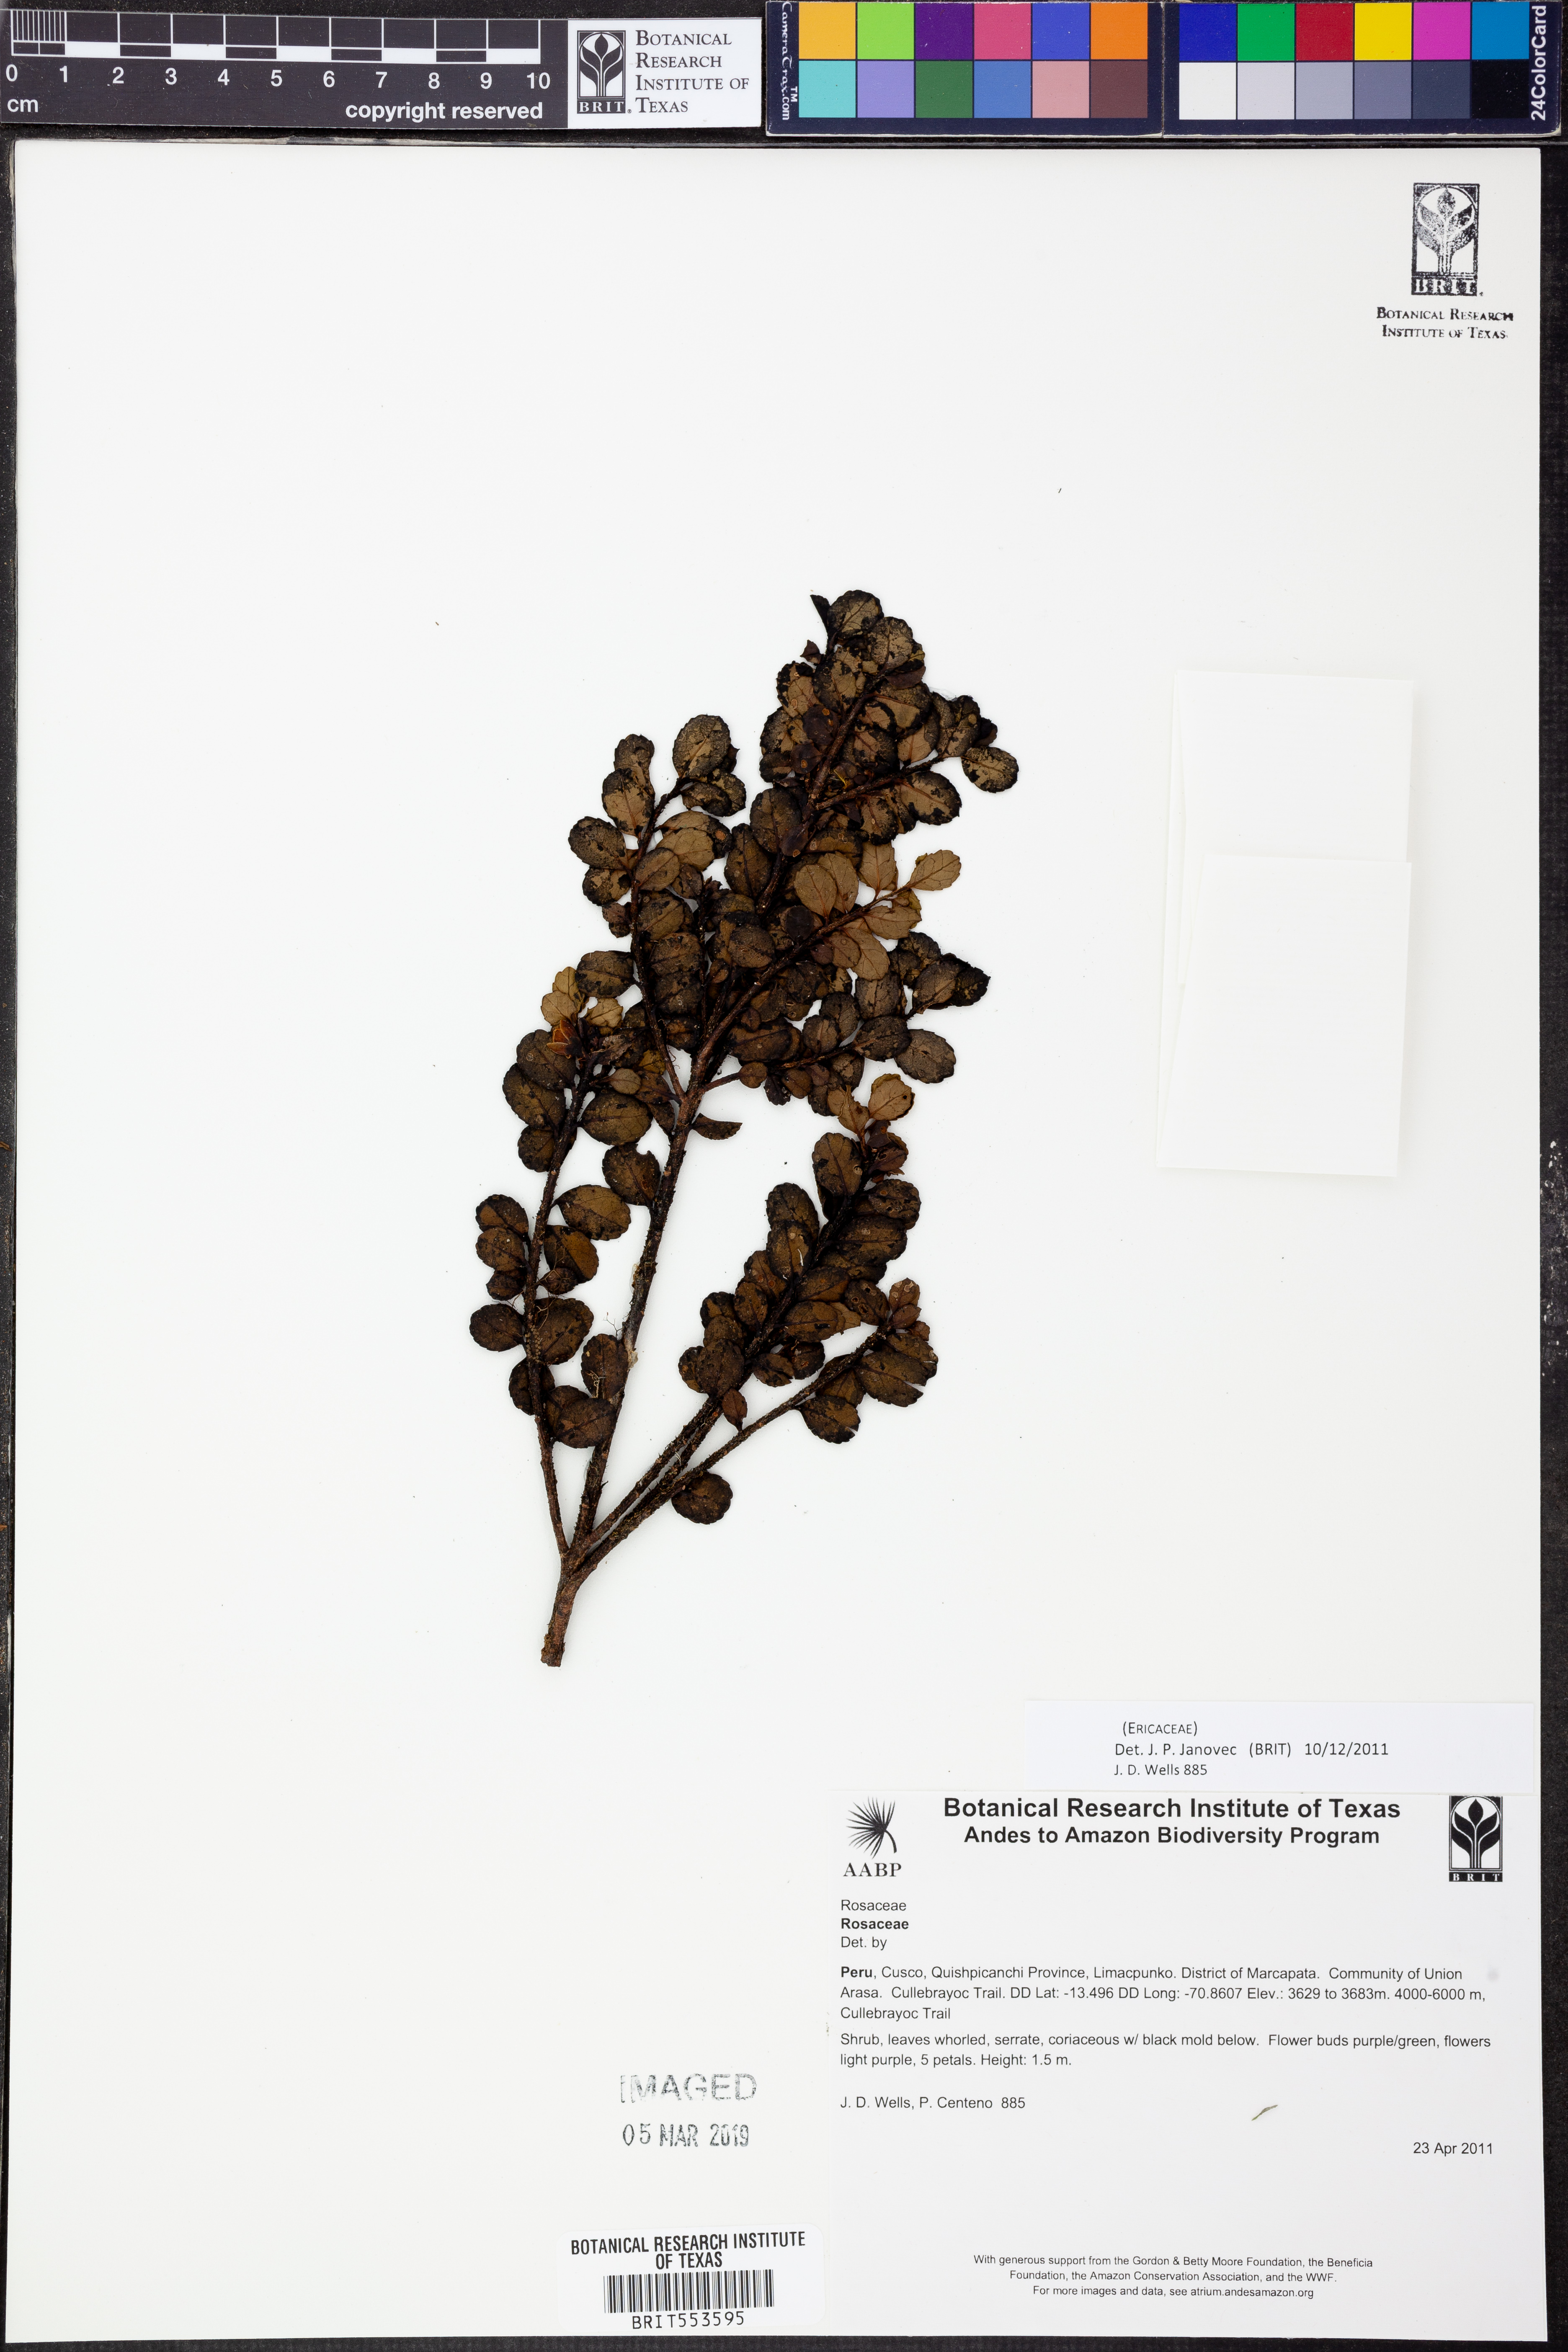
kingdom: Plantae
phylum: Tracheophyta
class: Magnoliopsida
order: Ericales
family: Ericaceae
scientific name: Ericaceae
